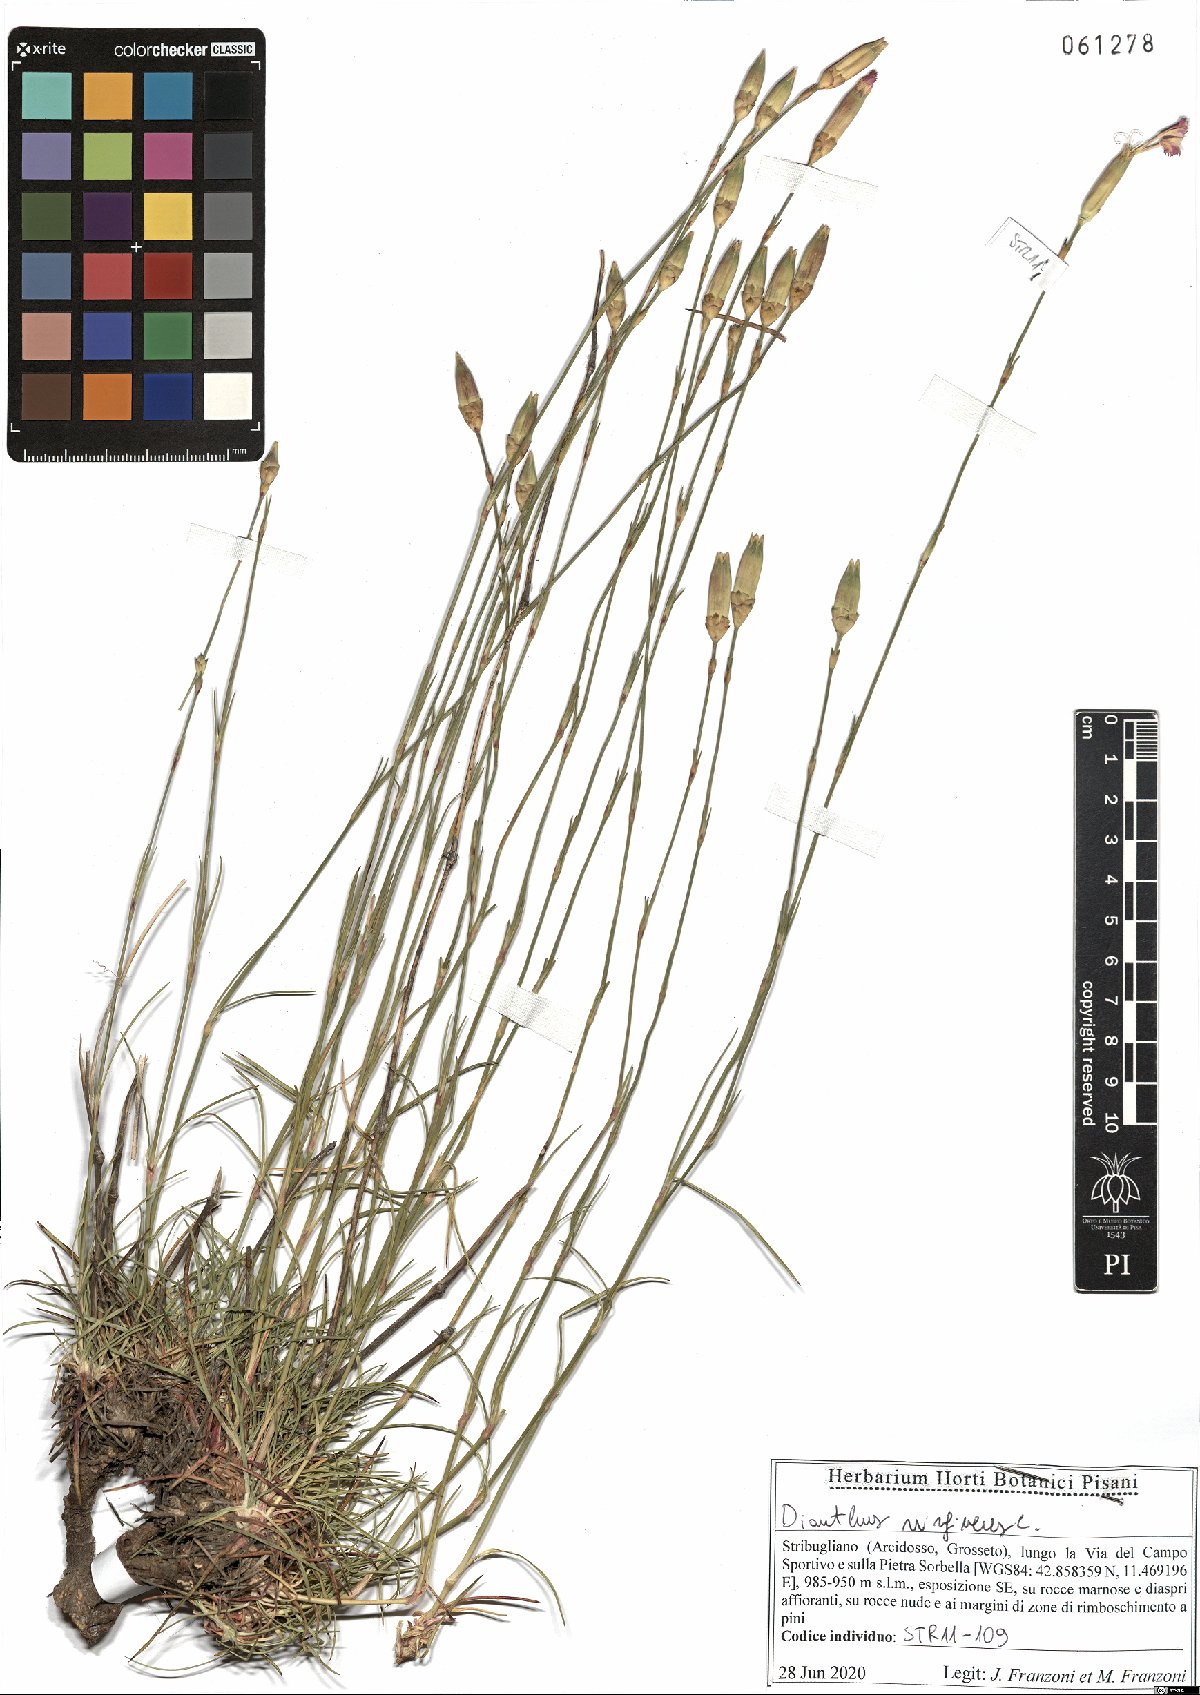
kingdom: Plantae
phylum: Tracheophyta
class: Magnoliopsida
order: Caryophyllales
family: Caryophyllaceae
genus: Dianthus
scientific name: Dianthus virgineus
